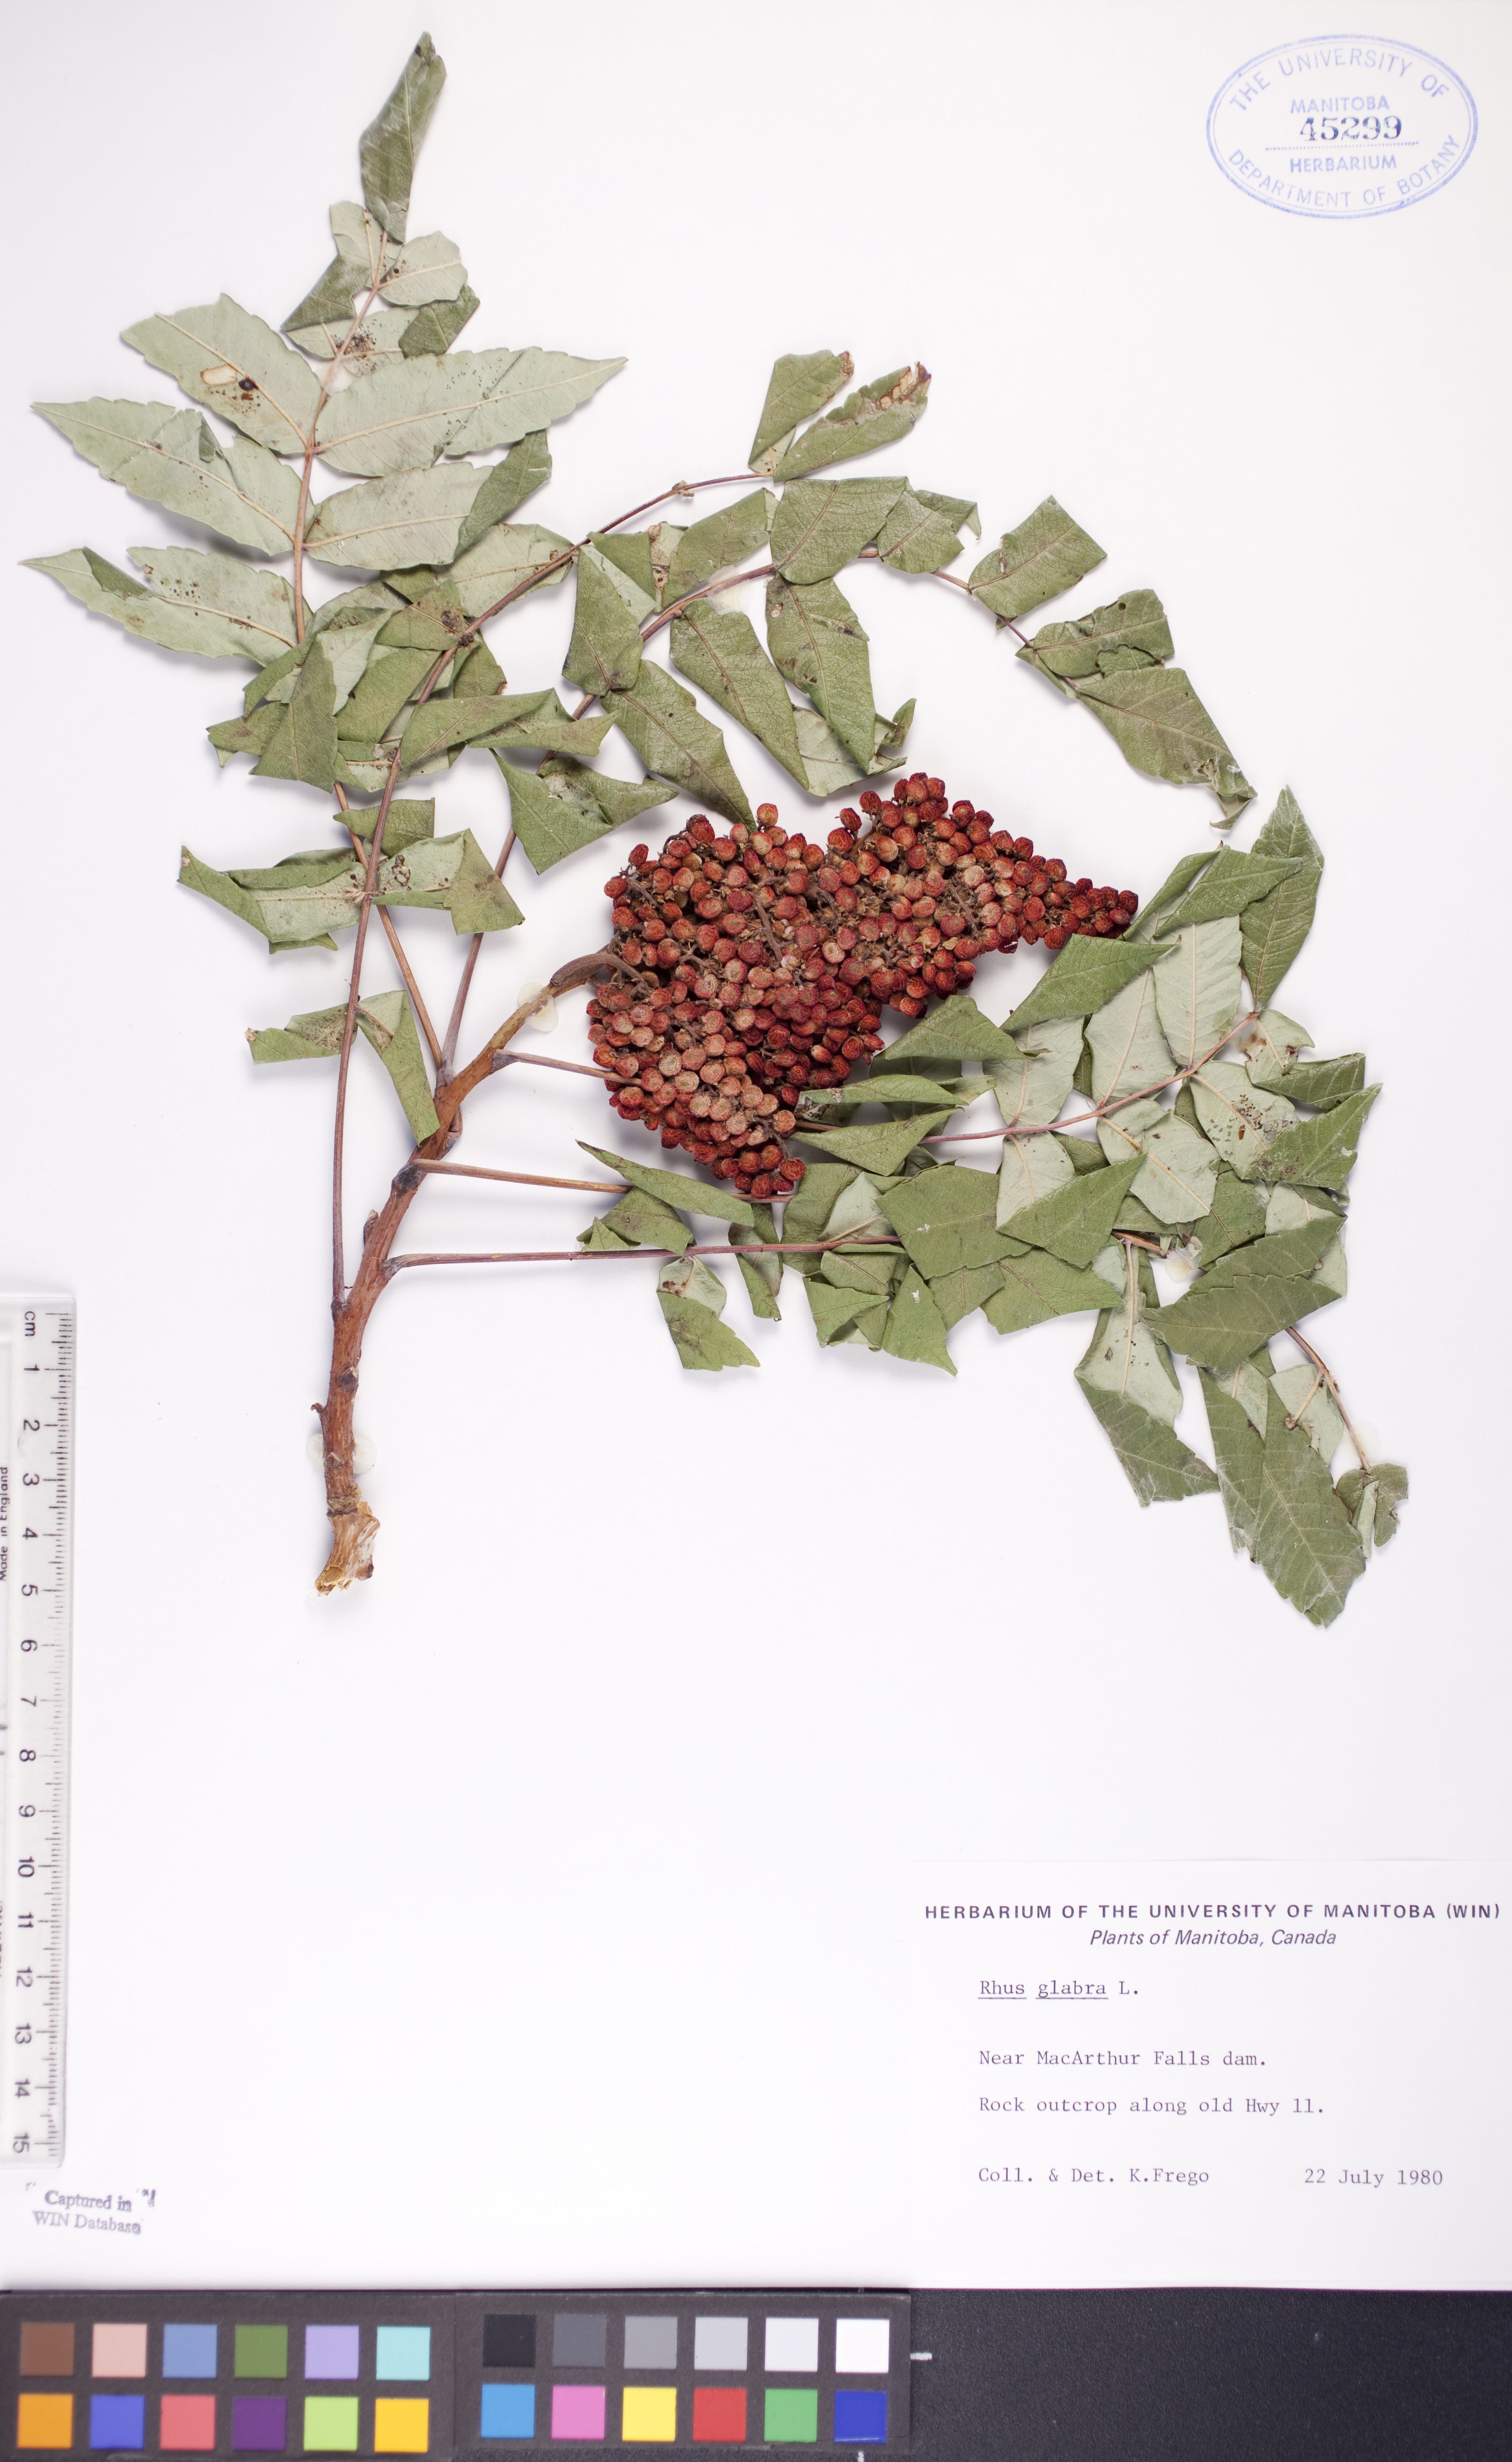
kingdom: Plantae
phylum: Tracheophyta
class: Magnoliopsida
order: Sapindales
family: Anacardiaceae
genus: Rhus
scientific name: Rhus glabra
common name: Scarlet sumac
